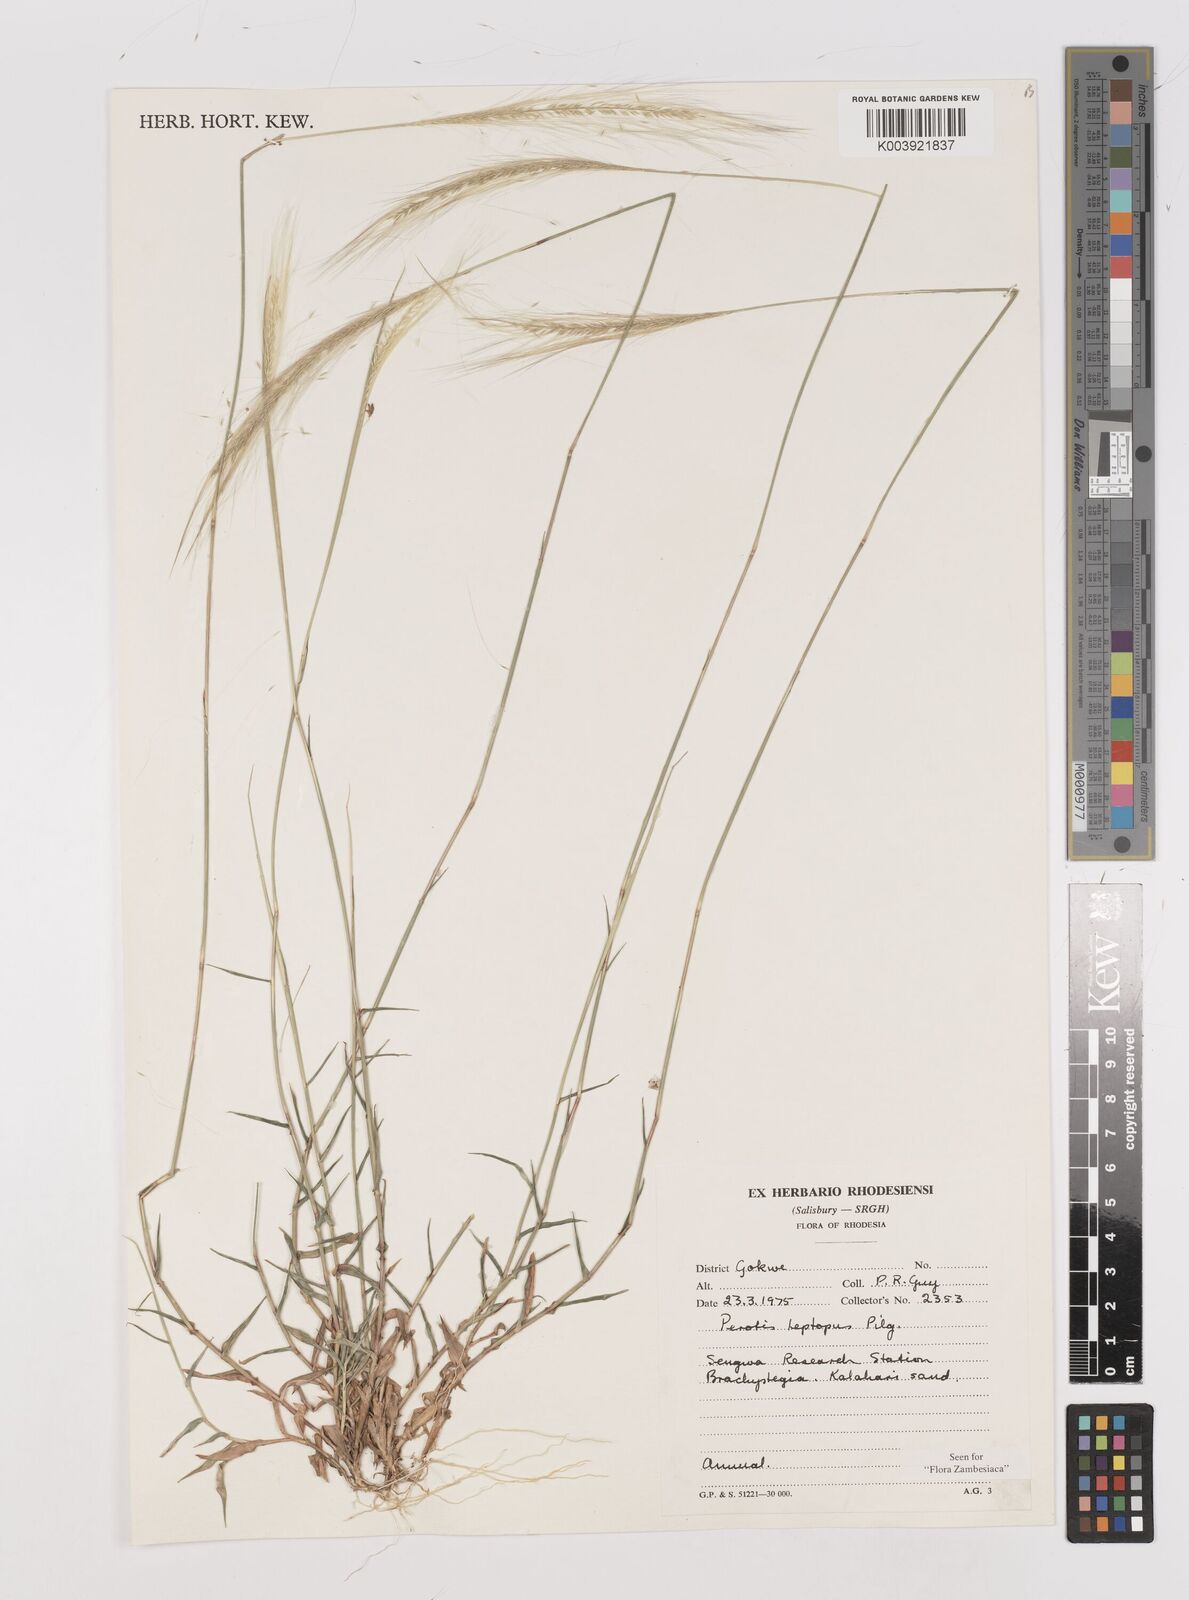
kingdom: Plantae
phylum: Tracheophyta
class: Liliopsida
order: Poales
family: Poaceae
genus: Perotis
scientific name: Perotis leptopus
